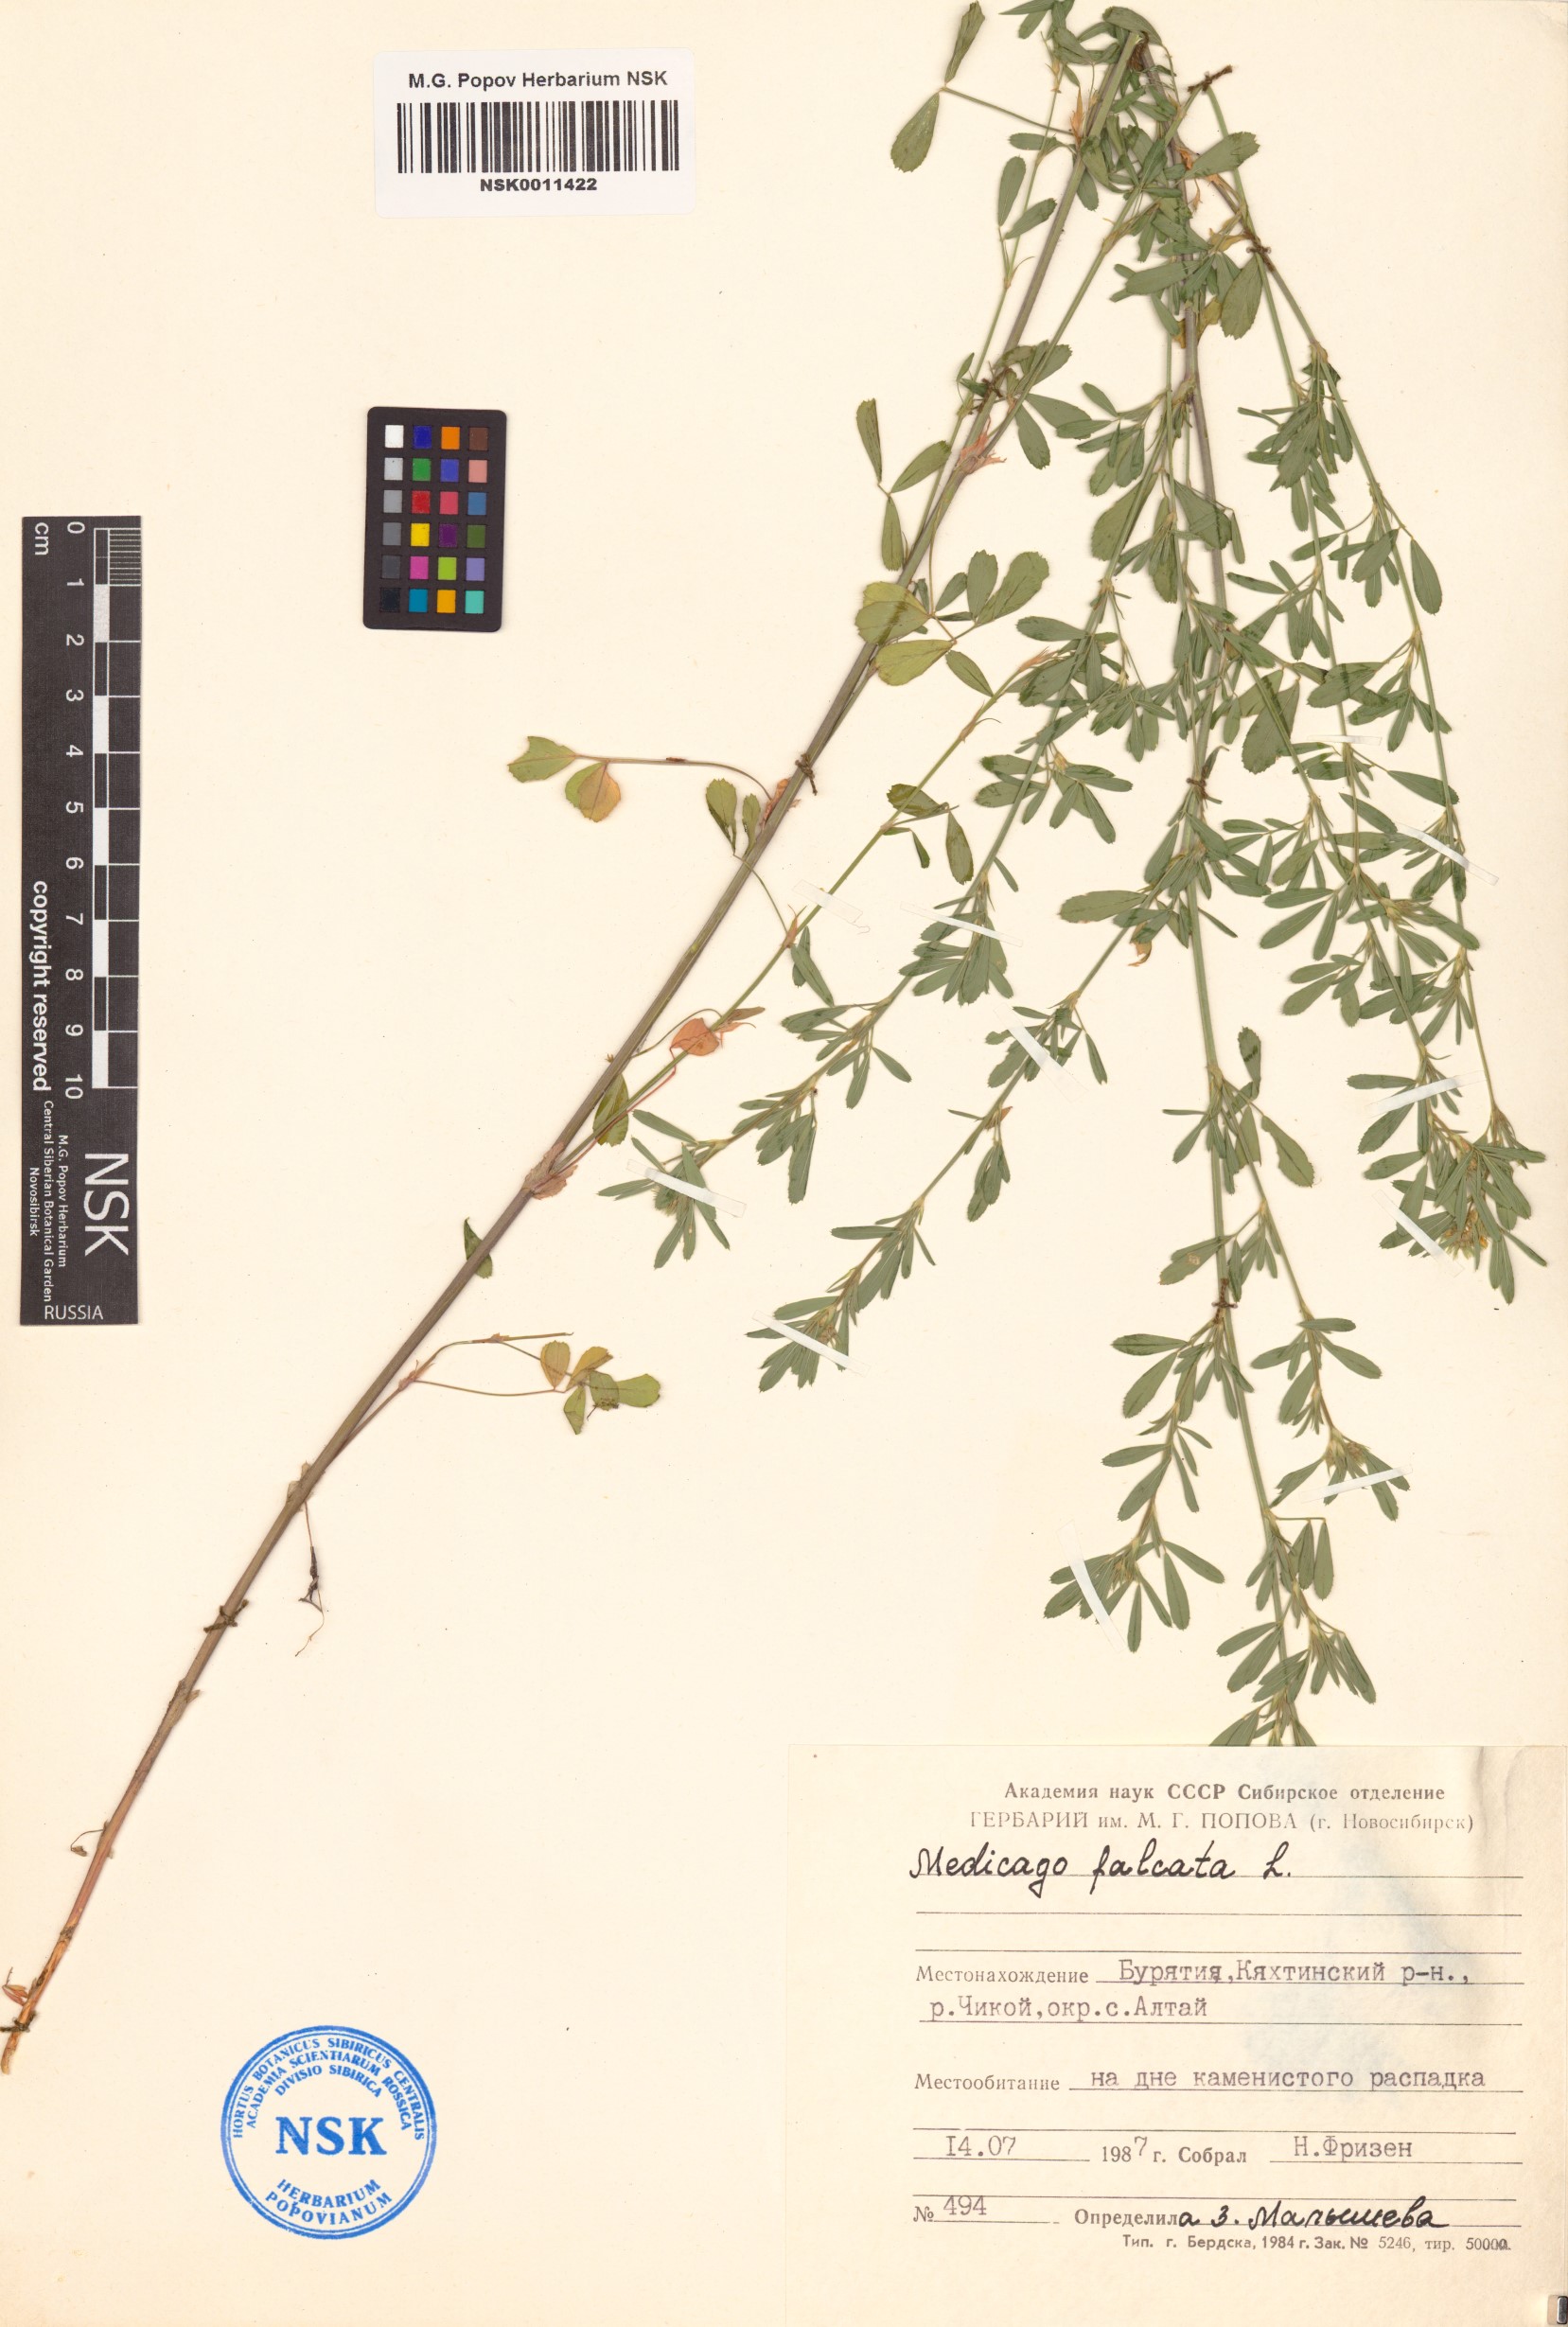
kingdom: Plantae
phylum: Tracheophyta
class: Magnoliopsida
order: Fabales
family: Fabaceae
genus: Medicago
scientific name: Medicago falcata
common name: Sickle medick
